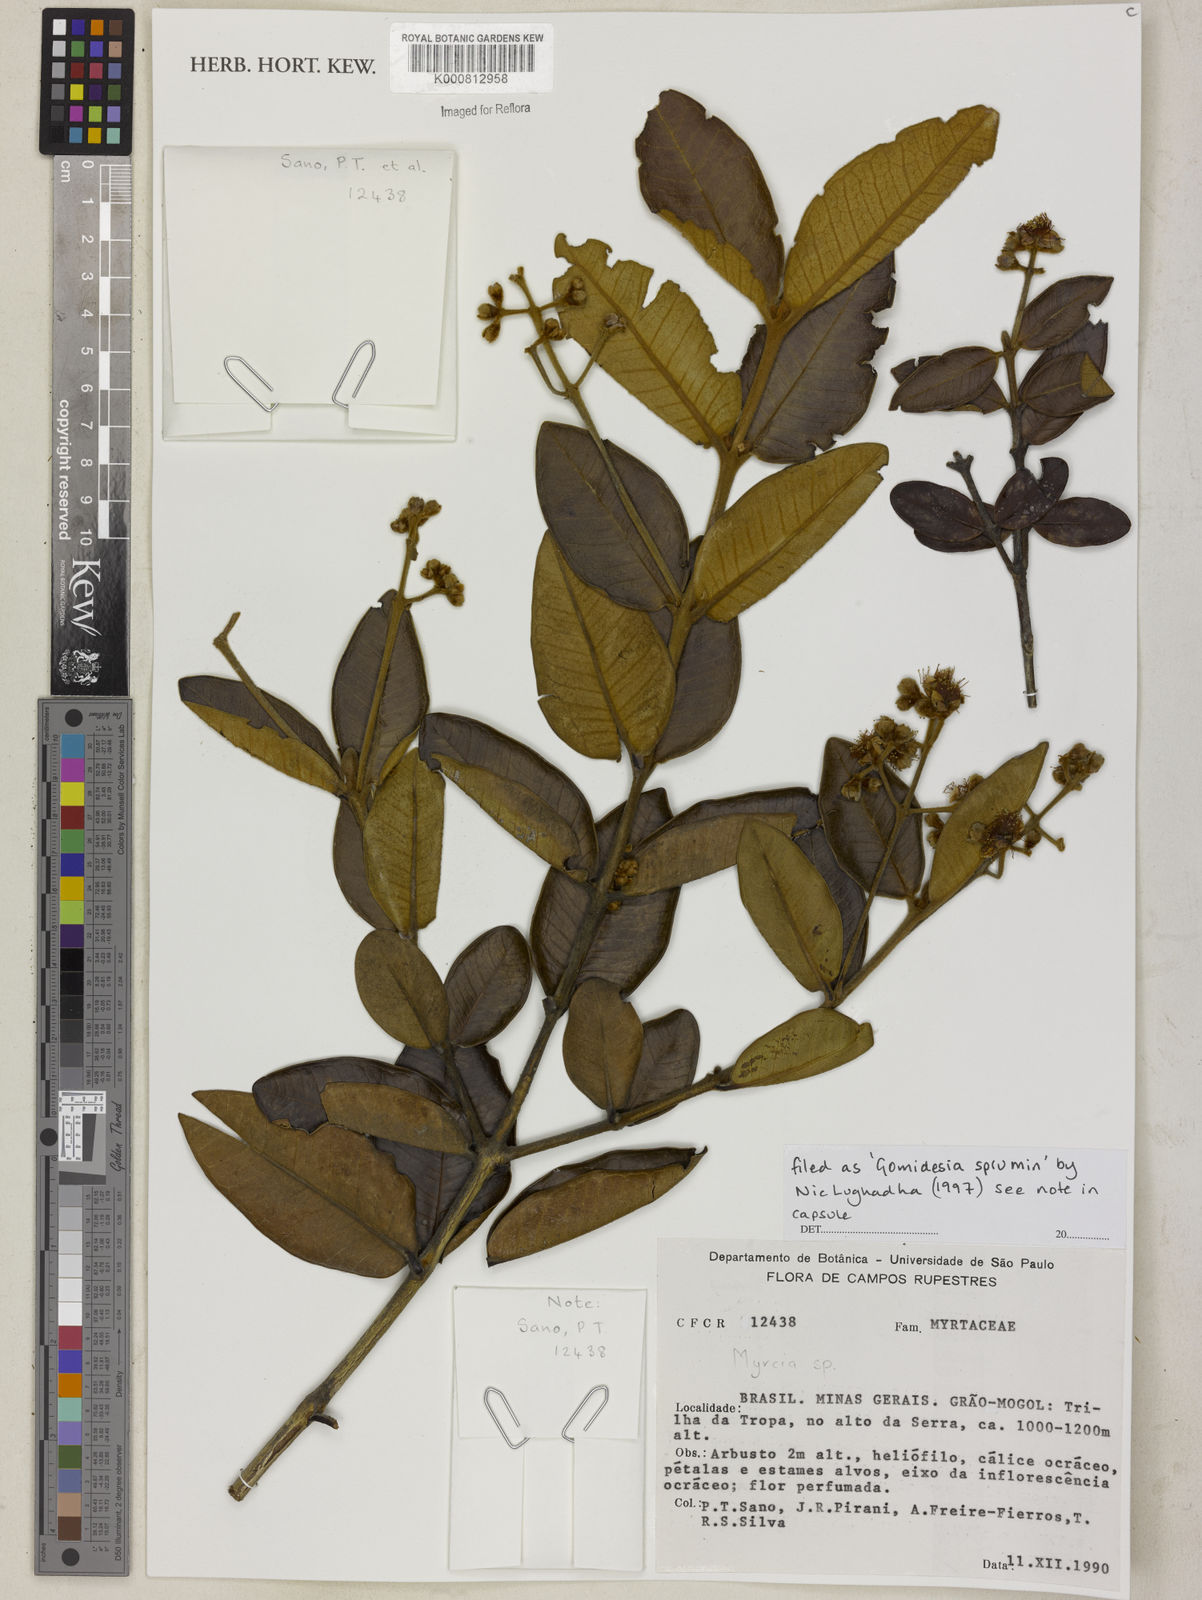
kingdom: Plantae
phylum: Tracheophyta
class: Magnoliopsida
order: Myrtales
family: Myrtaceae
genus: Myrcia
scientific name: Myrcia
